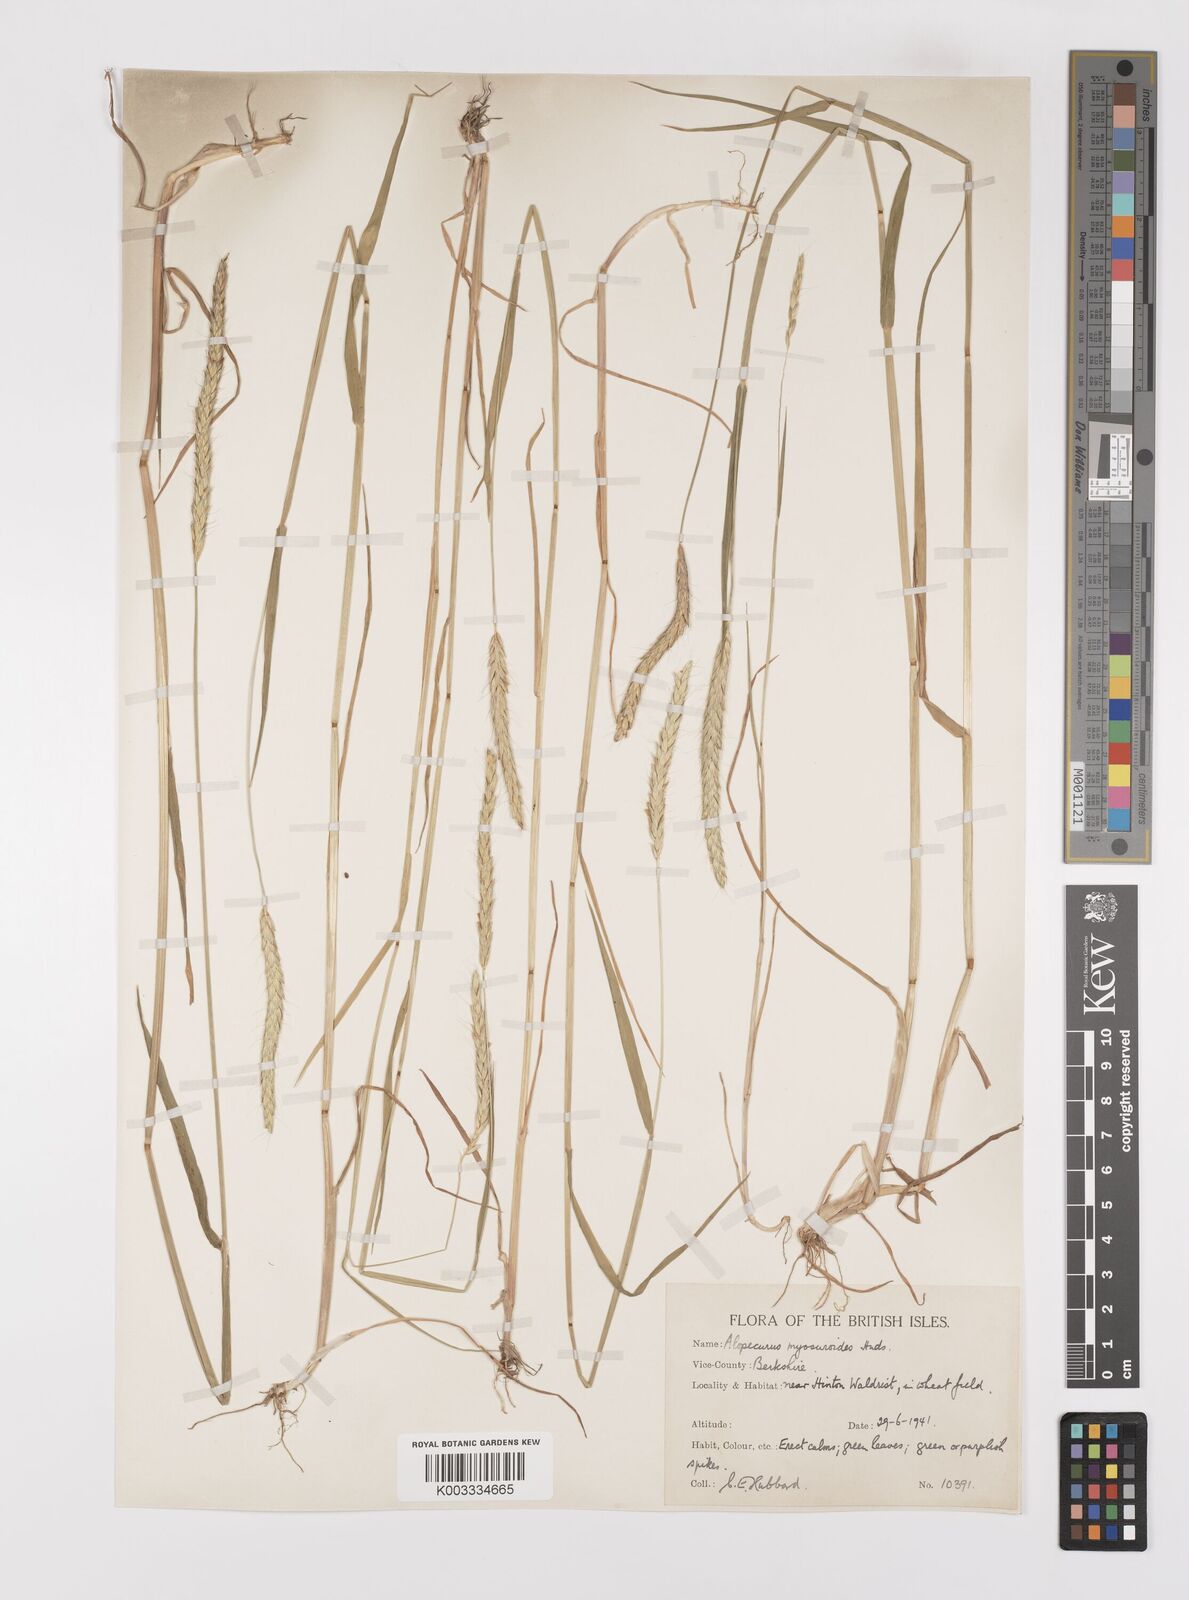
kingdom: Plantae
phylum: Tracheophyta
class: Liliopsida
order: Poales
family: Poaceae
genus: Alopecurus
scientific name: Alopecurus myosuroides
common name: Black-grass
